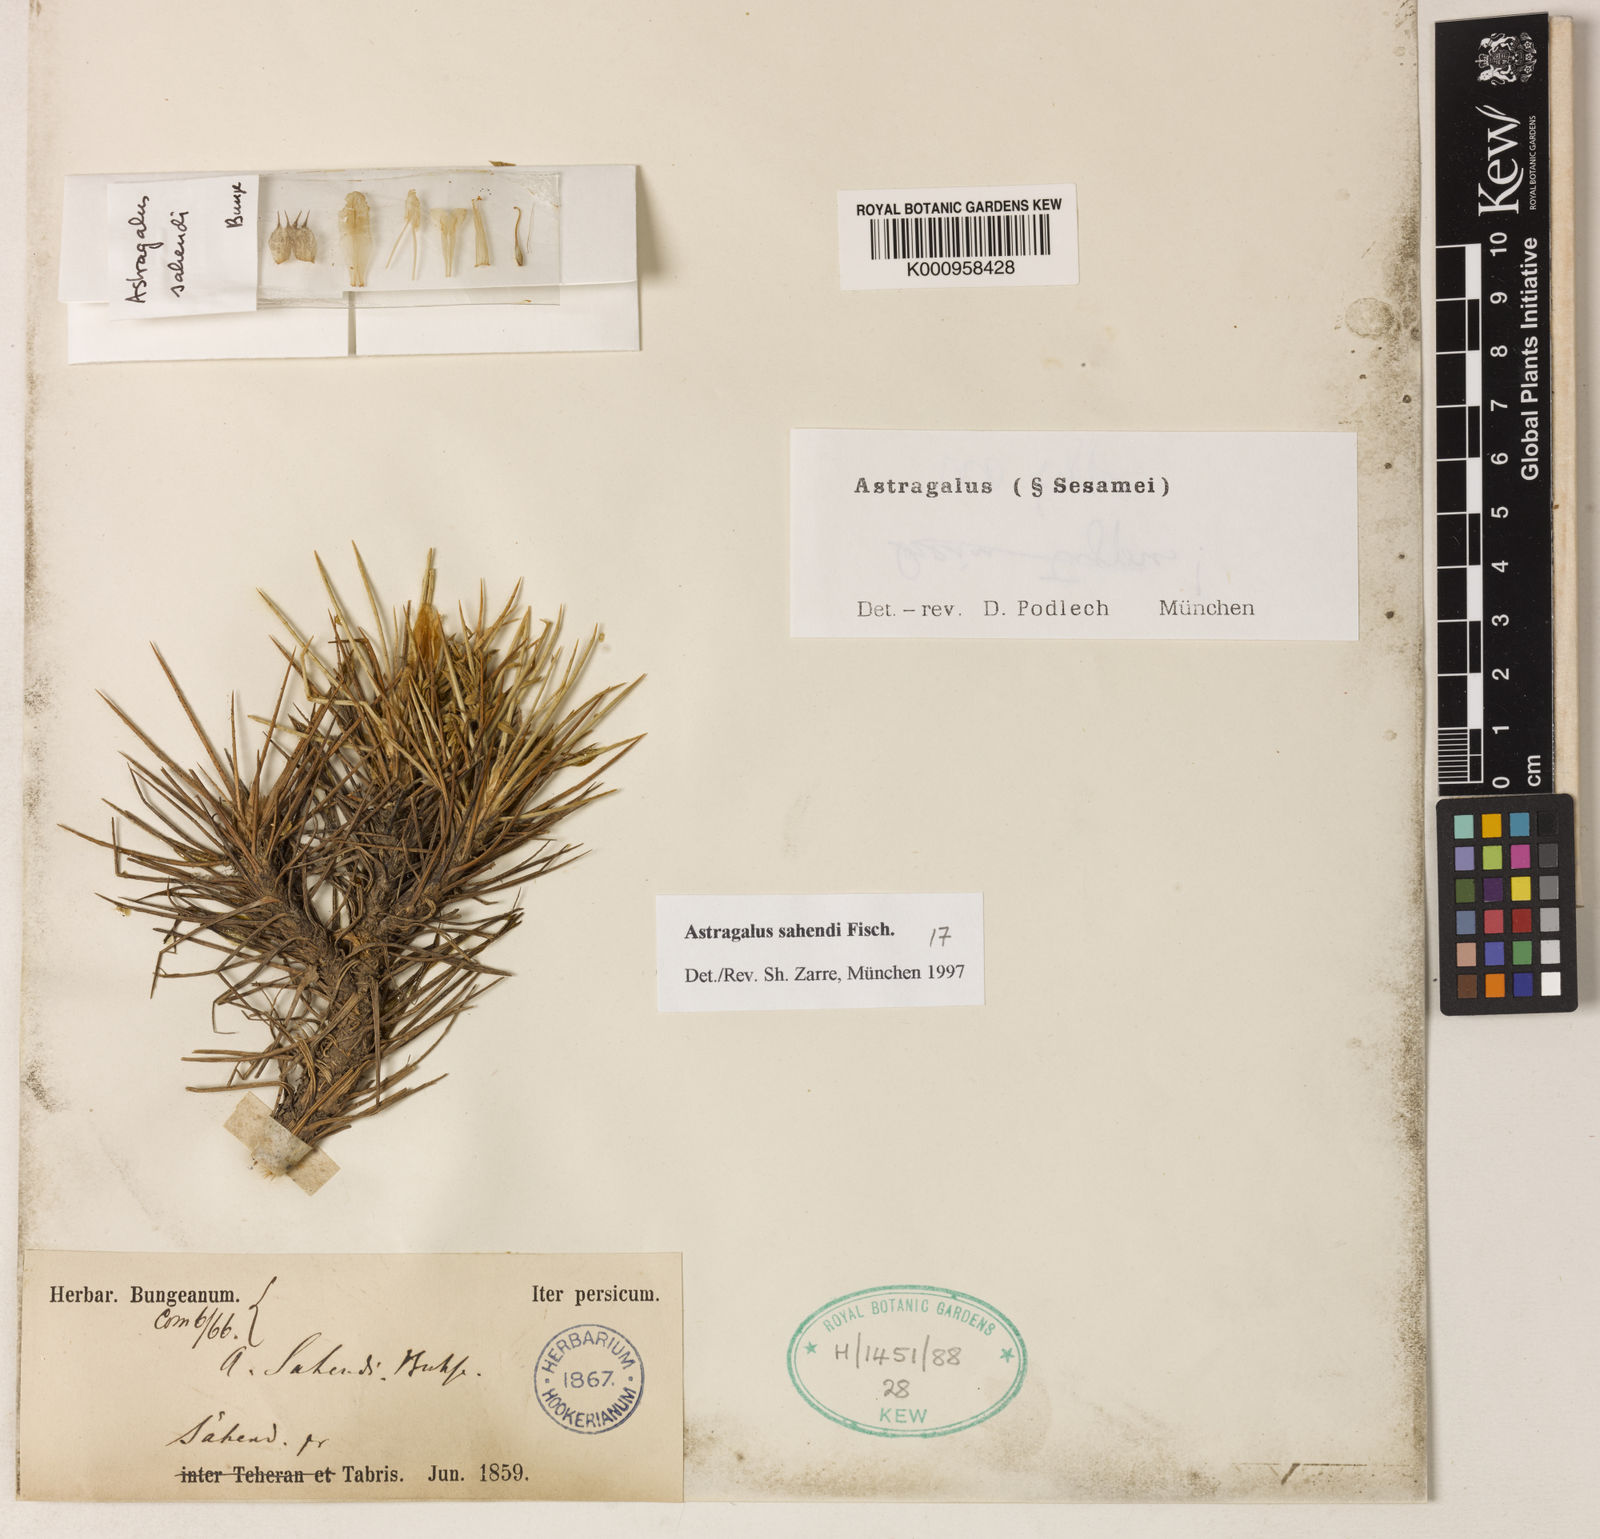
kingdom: Plantae
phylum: Tracheophyta
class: Magnoliopsida
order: Fabales
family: Fabaceae
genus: Astragalus
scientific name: Astragalus sahendi
